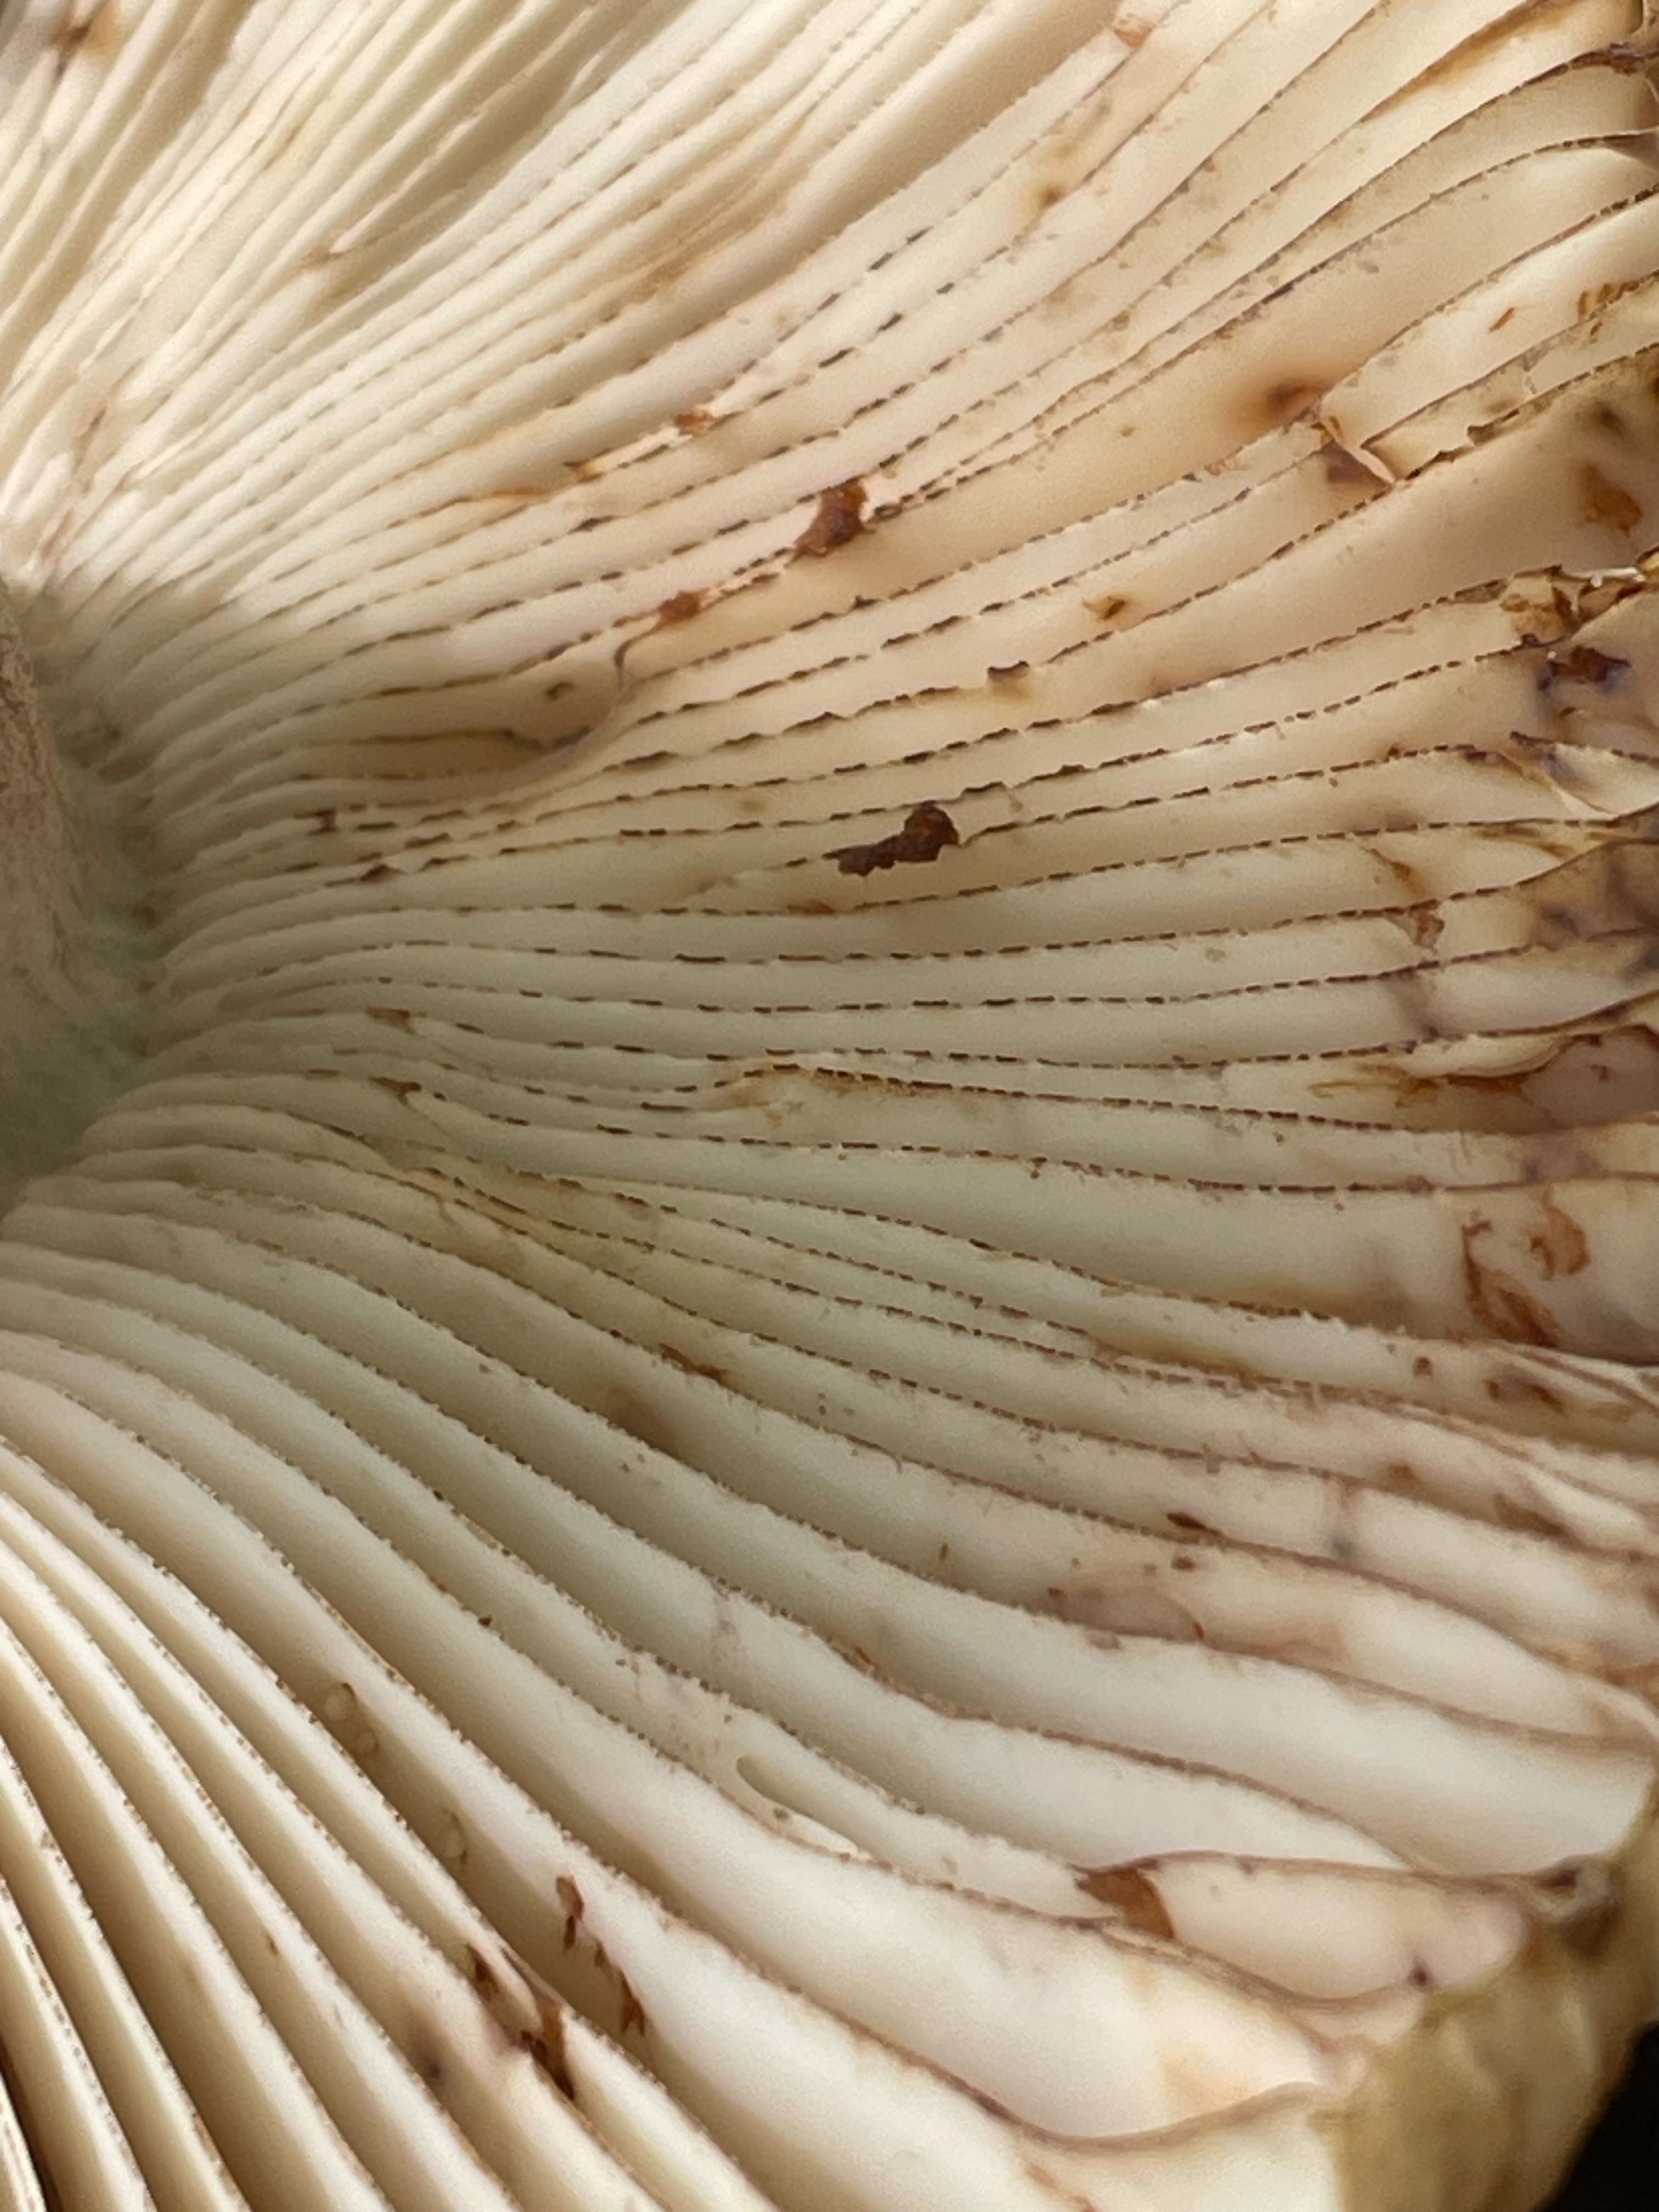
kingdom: Fungi
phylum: Basidiomycota
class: Agaricomycetes
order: Russulales
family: Russulaceae
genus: Russula
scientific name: Russula illota
